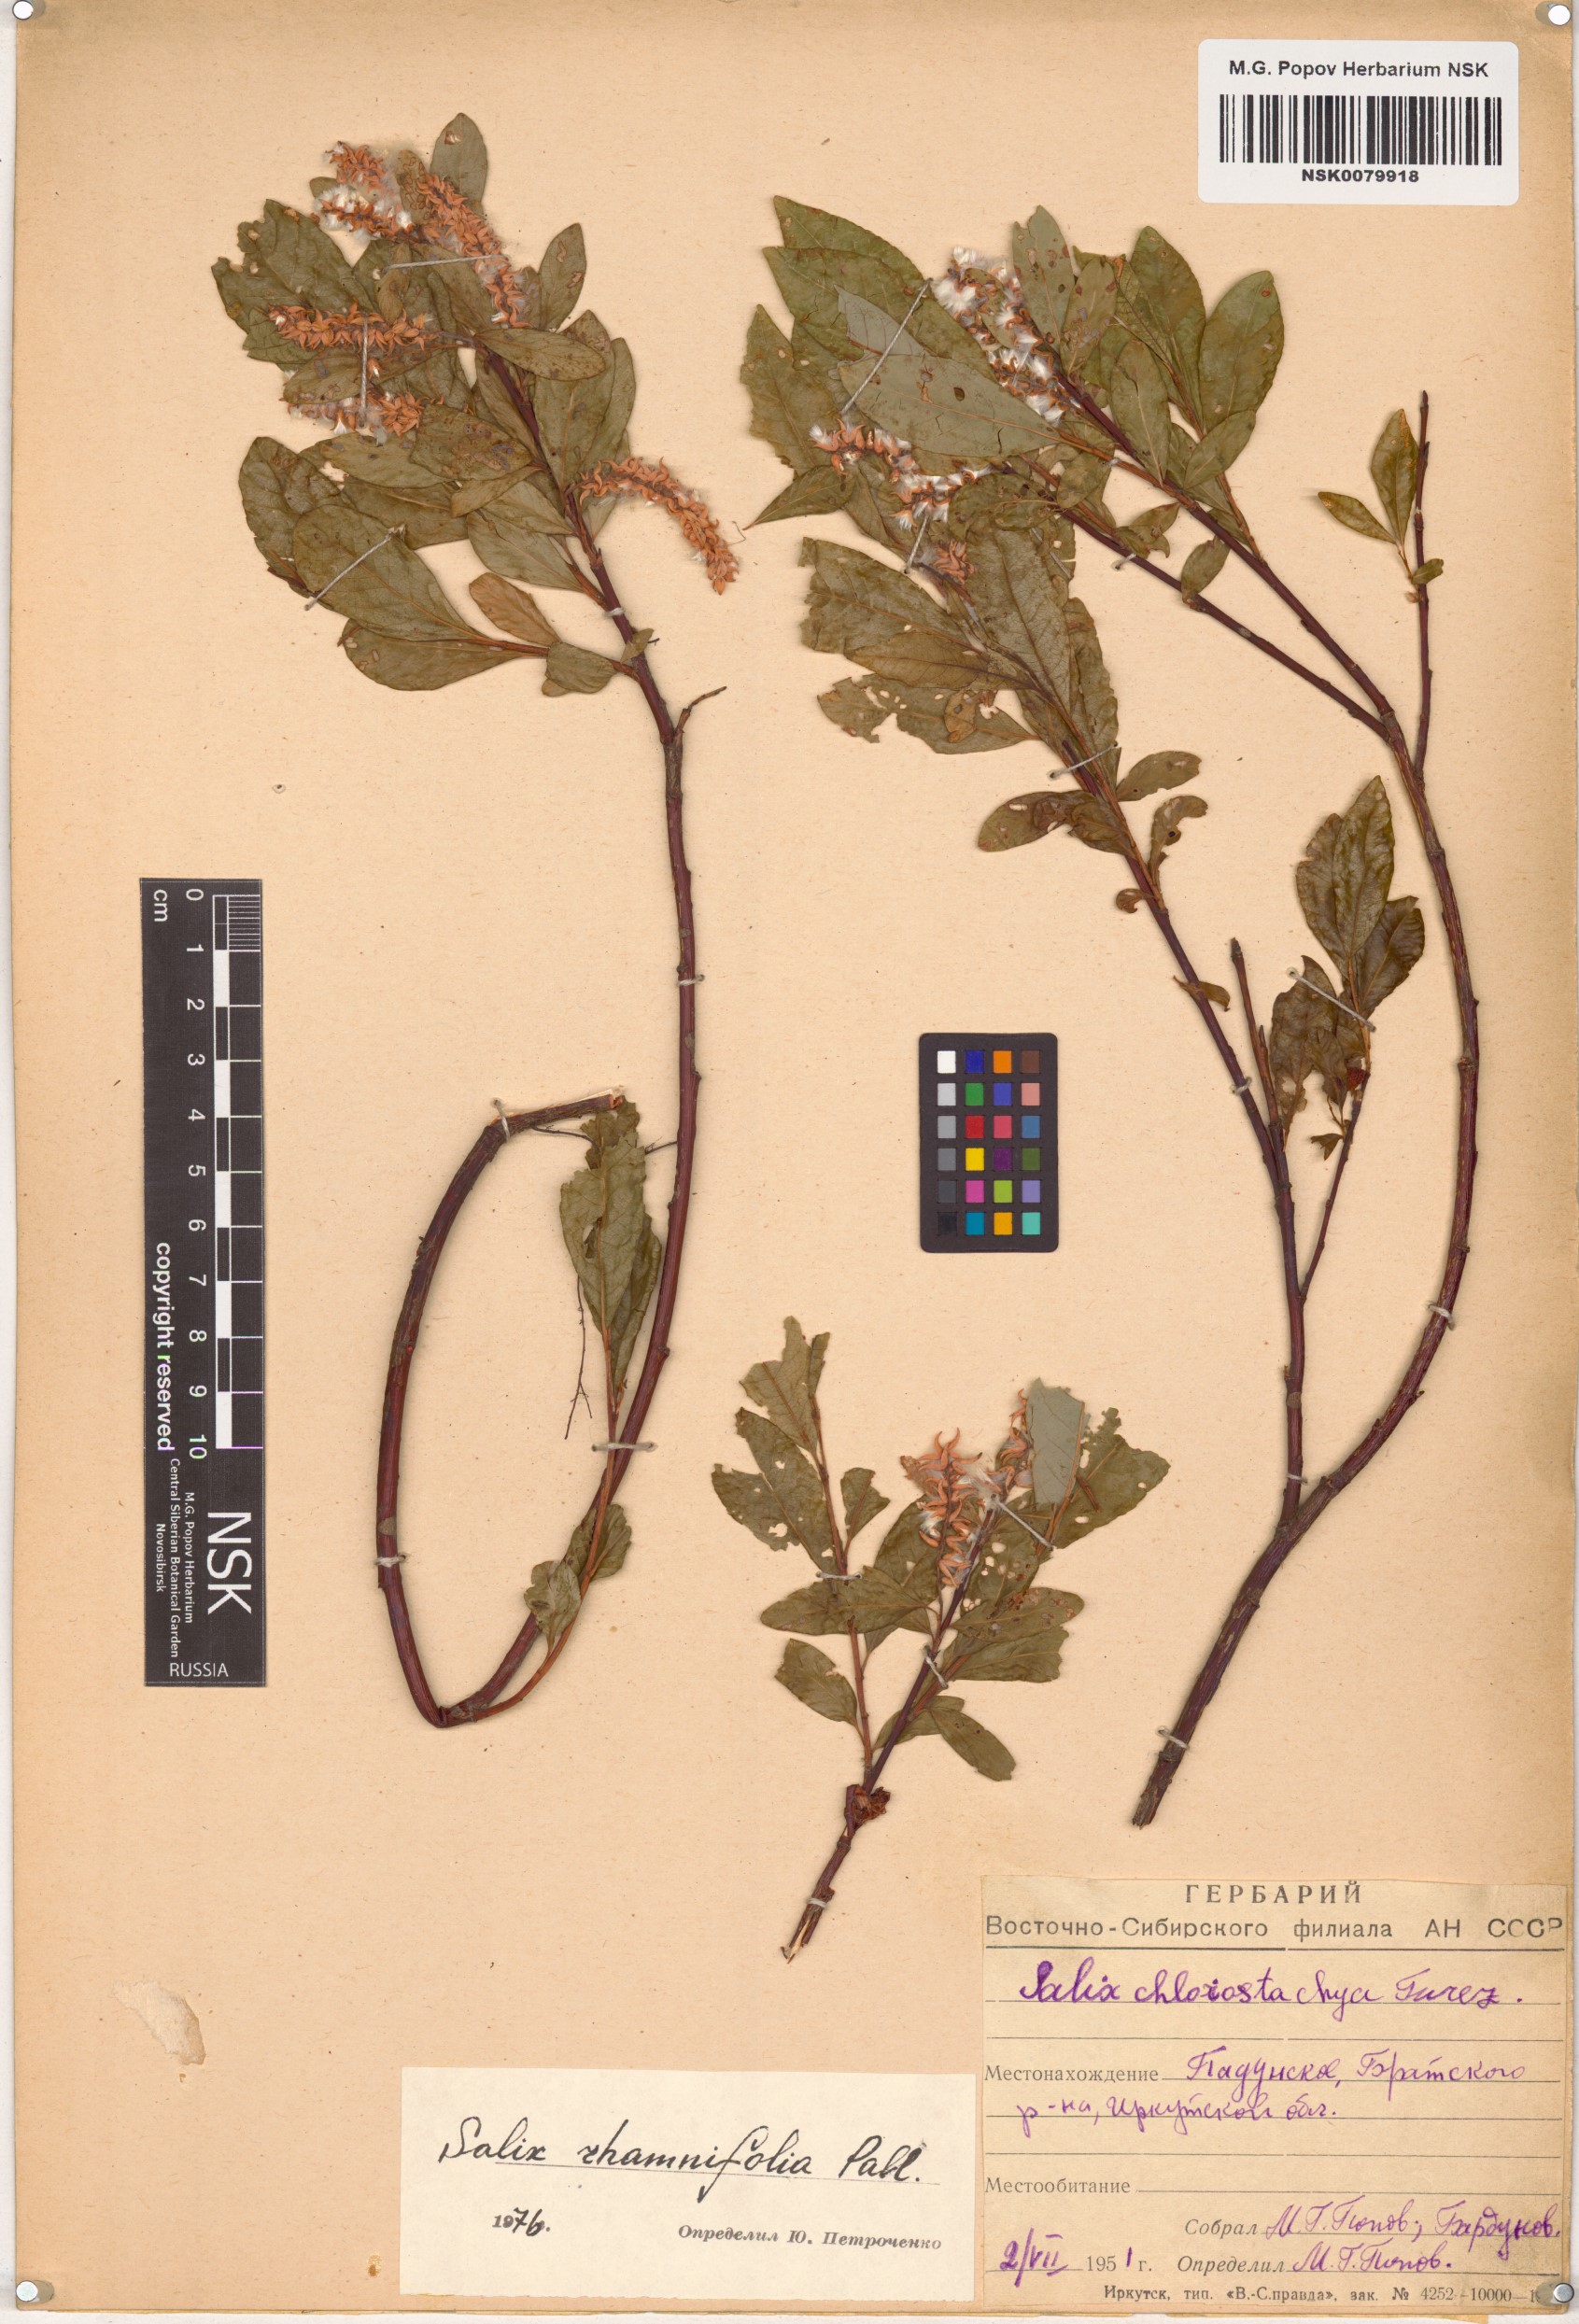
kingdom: Plantae
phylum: Tracheophyta
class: Magnoliopsida
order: Malpighiales
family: Salicaceae
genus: Salix
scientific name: Salix rhamnifolia
